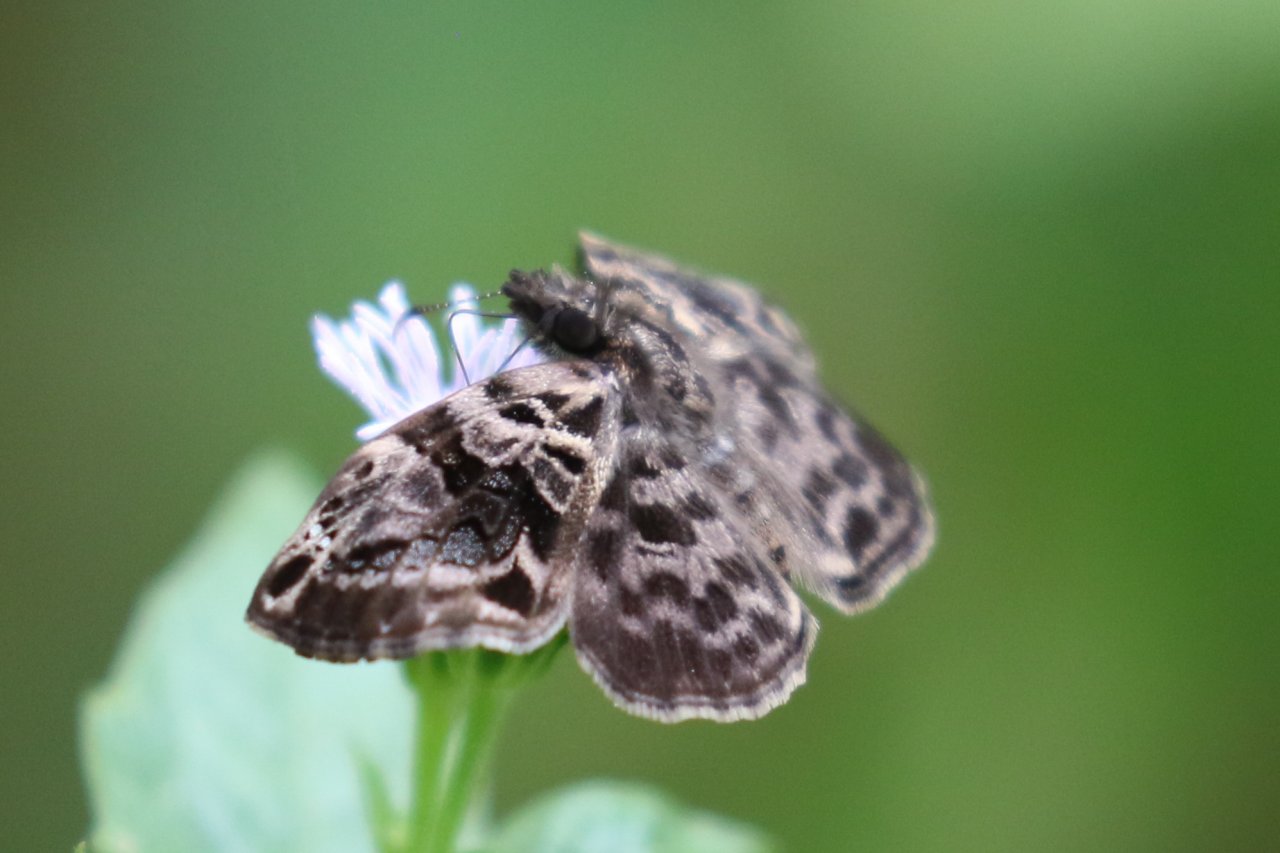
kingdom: Animalia
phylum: Arthropoda
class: Insecta
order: Lepidoptera
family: Hesperiidae
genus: Gorgythion
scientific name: Gorgythion begga
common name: Variegated Skipper
